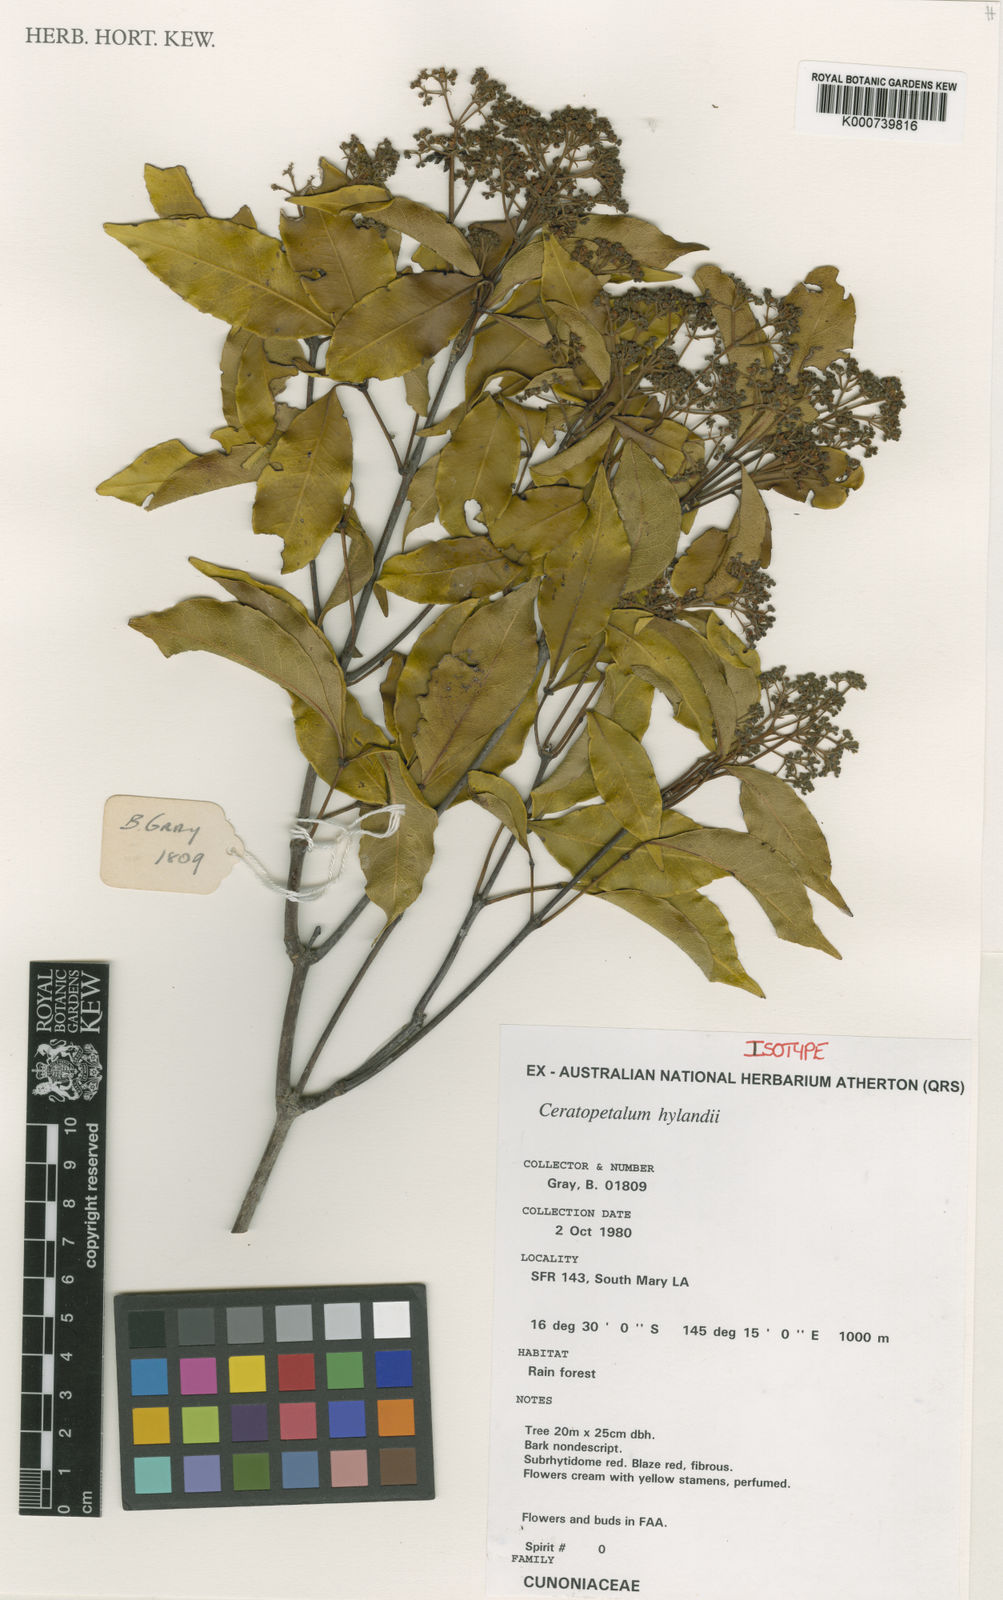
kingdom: Plantae
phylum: Tracheophyta
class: Magnoliopsida
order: Oxalidales
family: Cunoniaceae
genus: Ceratopetalum
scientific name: Ceratopetalum hylandii
